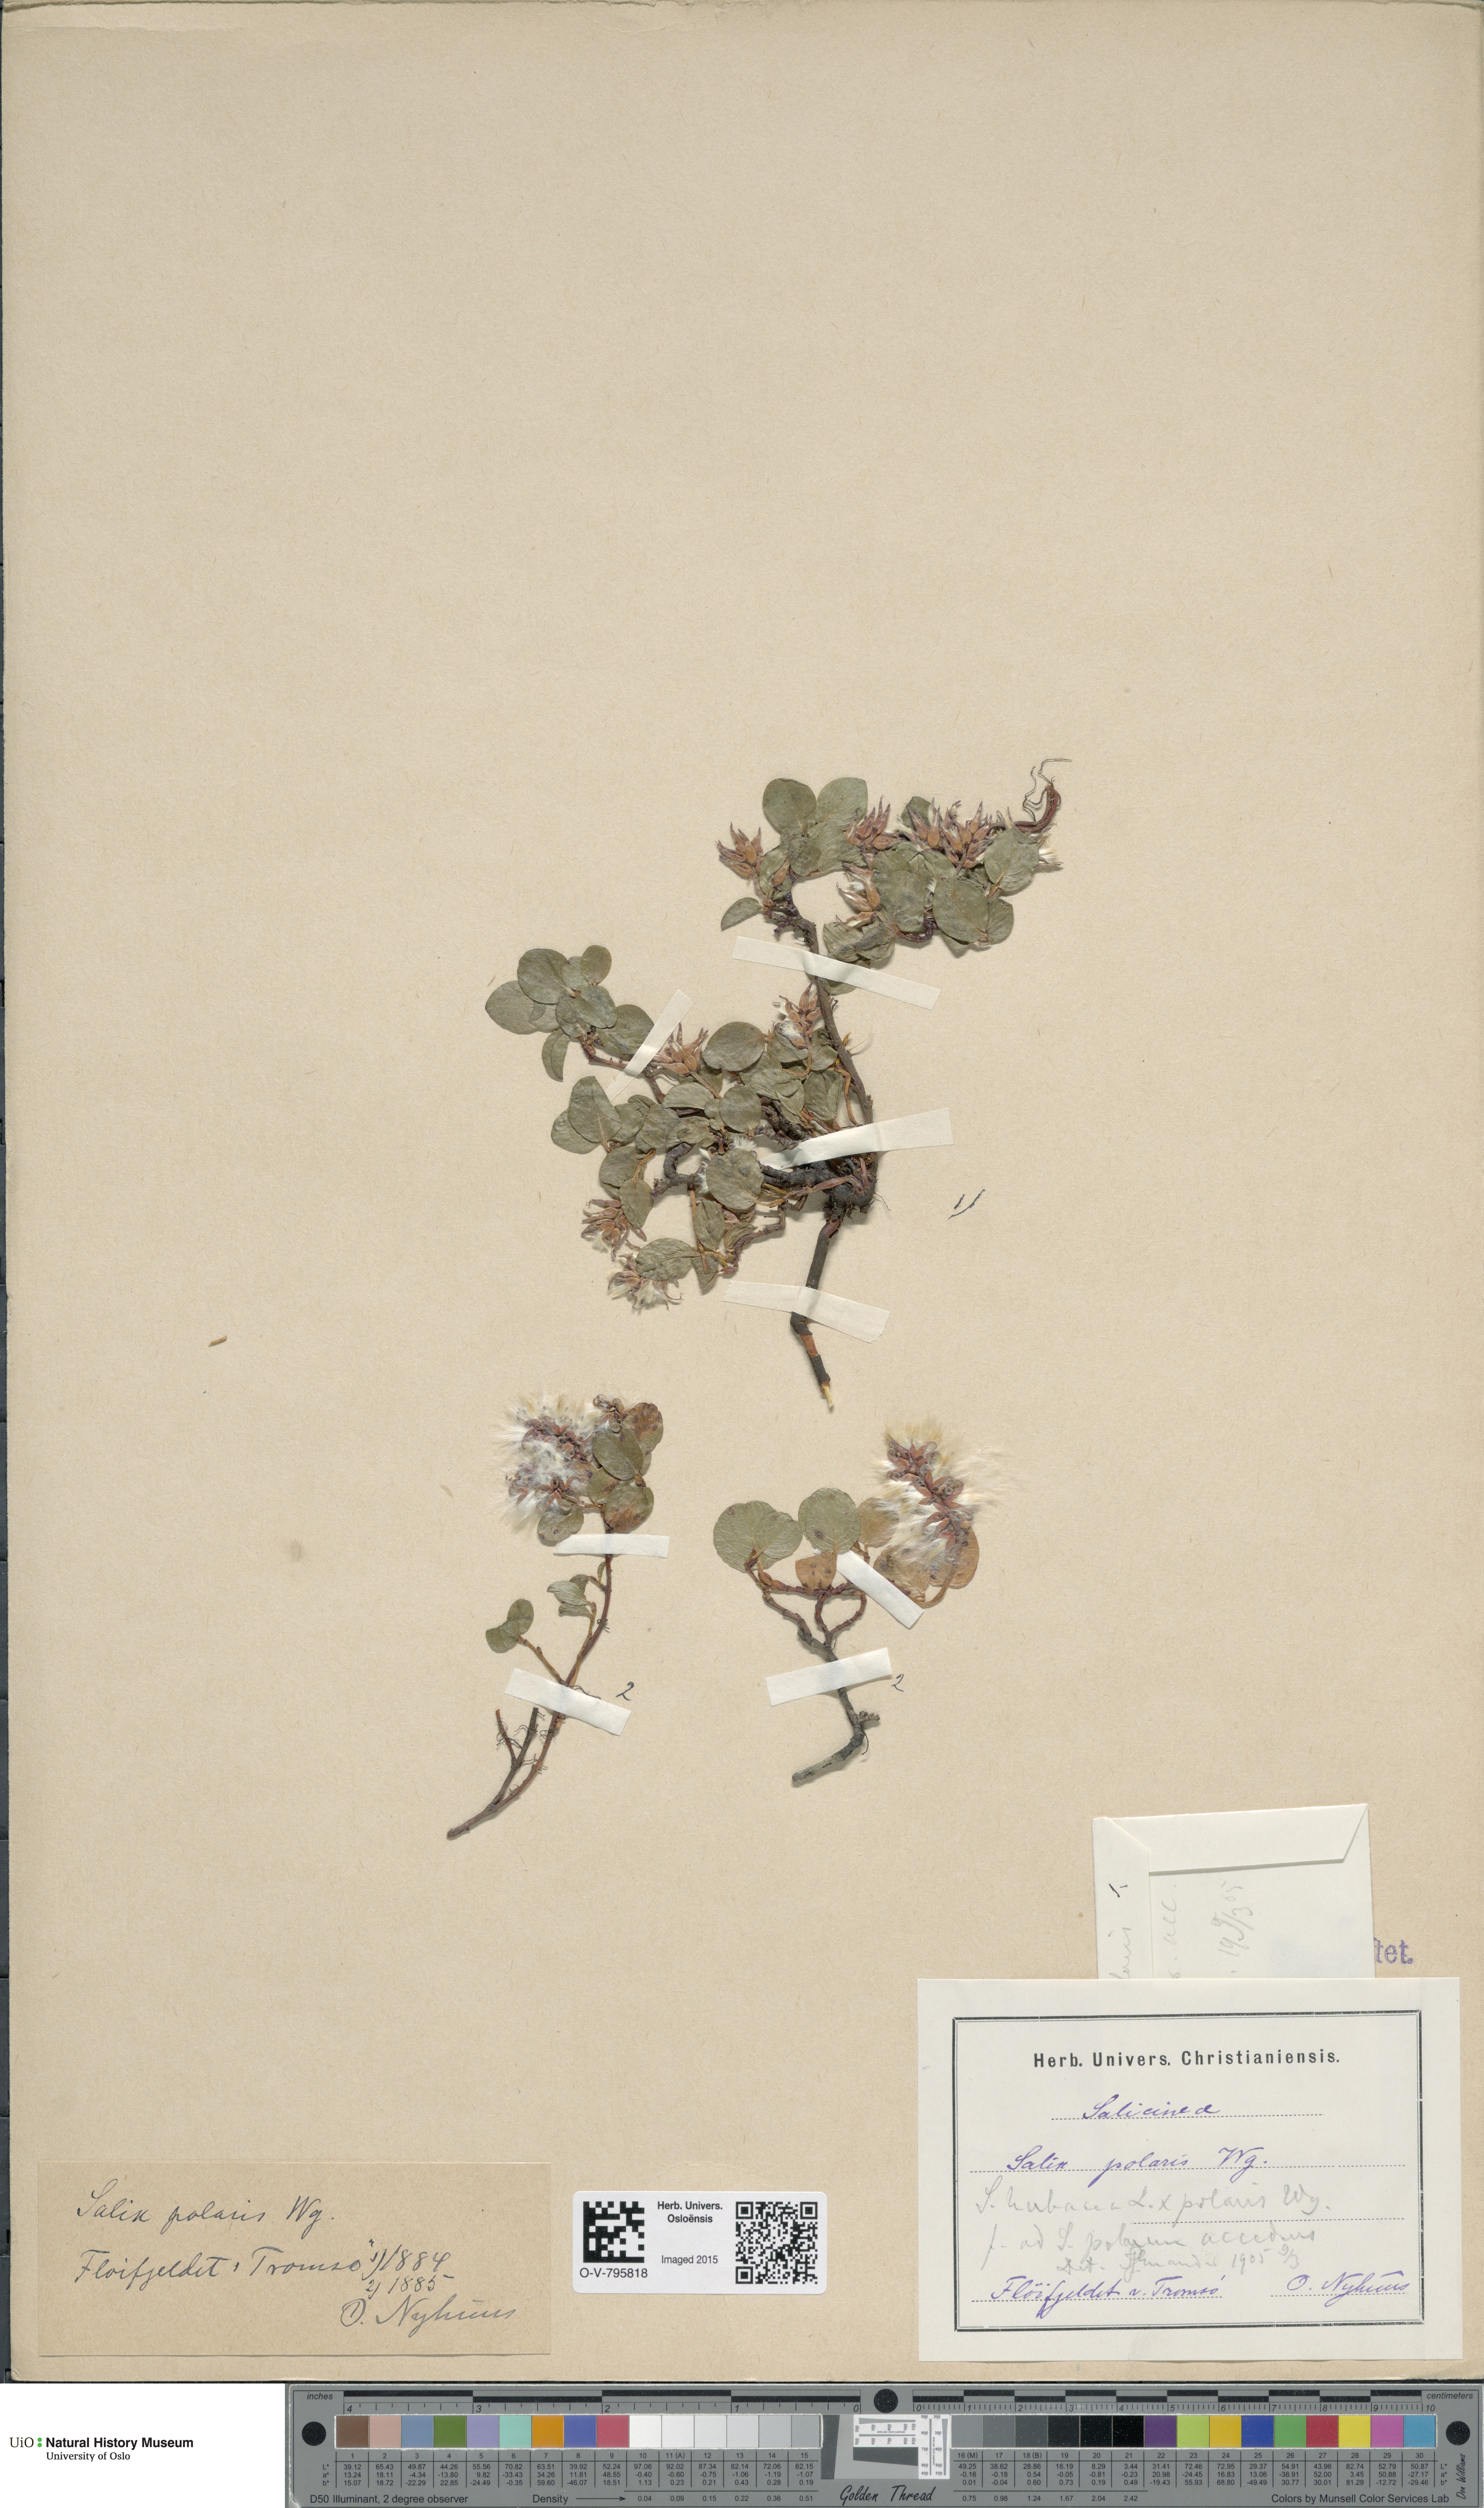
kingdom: Plantae
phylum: Tracheophyta
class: Magnoliopsida
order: Malpighiales
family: Salicaceae
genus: Salix
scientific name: Salix
